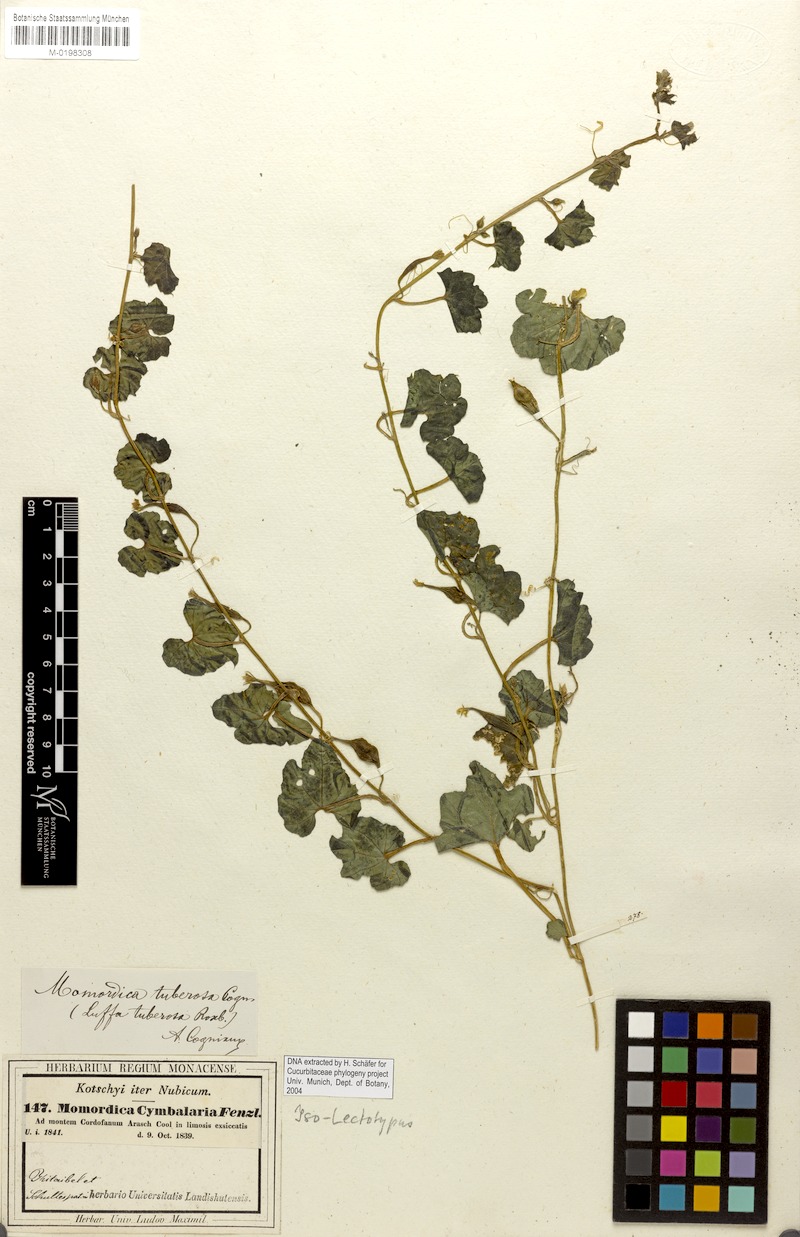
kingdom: Plantae
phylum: Tracheophyta
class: Magnoliopsida
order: Cucurbitales
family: Cucurbitaceae
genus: Momordica
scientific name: Momordica cymbalaria
